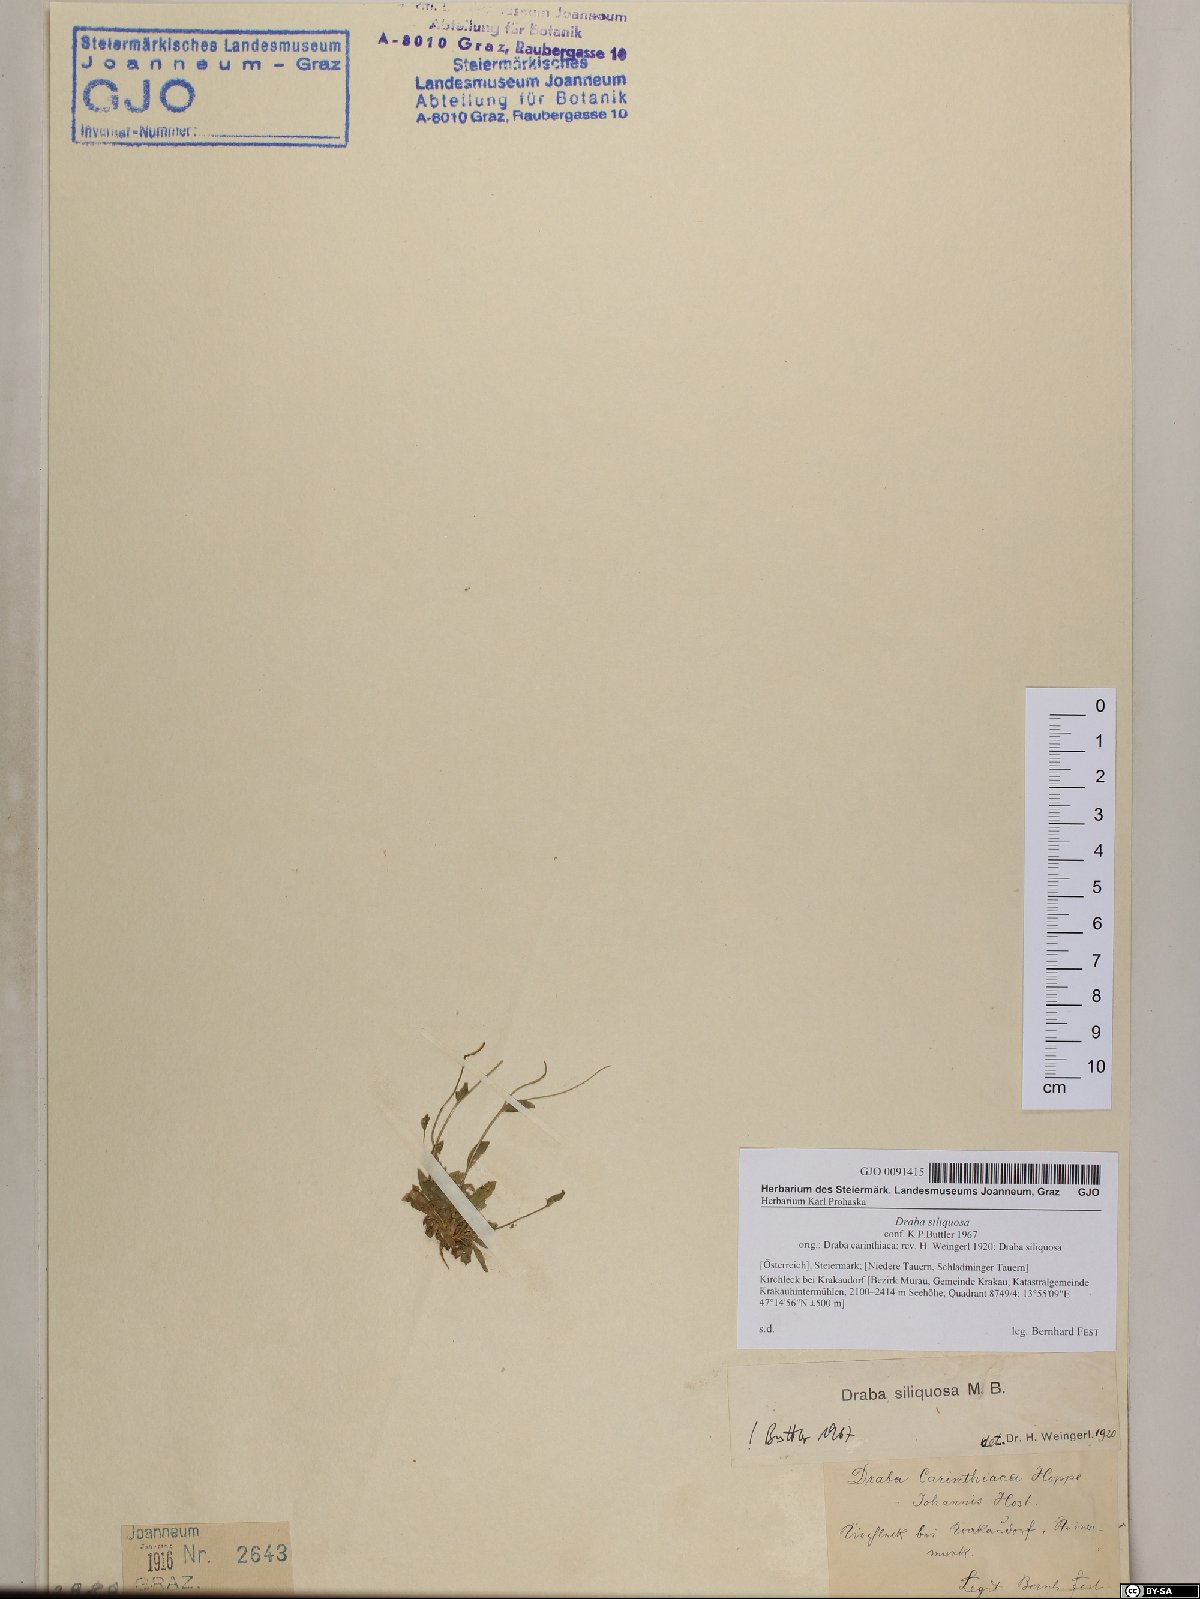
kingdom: Plantae
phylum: Tracheophyta
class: Magnoliopsida
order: Brassicales
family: Brassicaceae
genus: Draba
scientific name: Draba siliquosa
